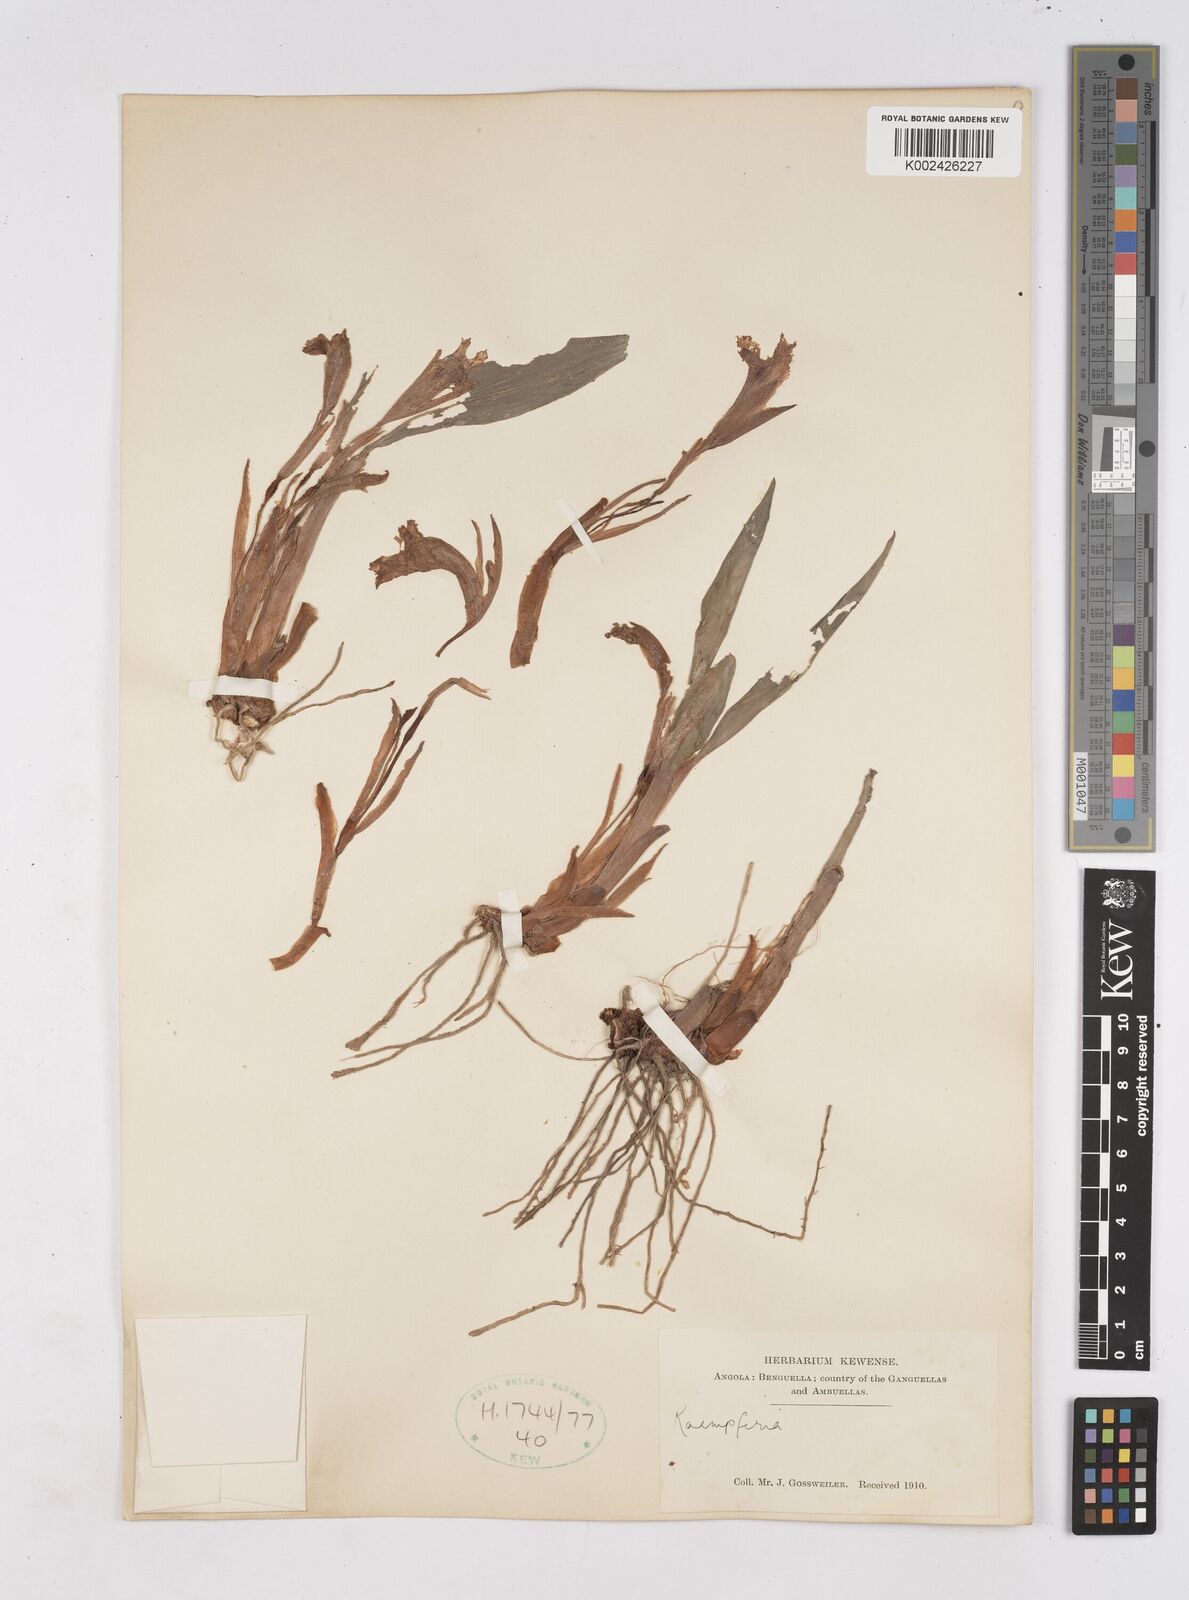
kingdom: Plantae
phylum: Tracheophyta
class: Liliopsida
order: Zingiberales
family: Zingiberaceae
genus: Siphonochilus
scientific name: Siphonochilus
